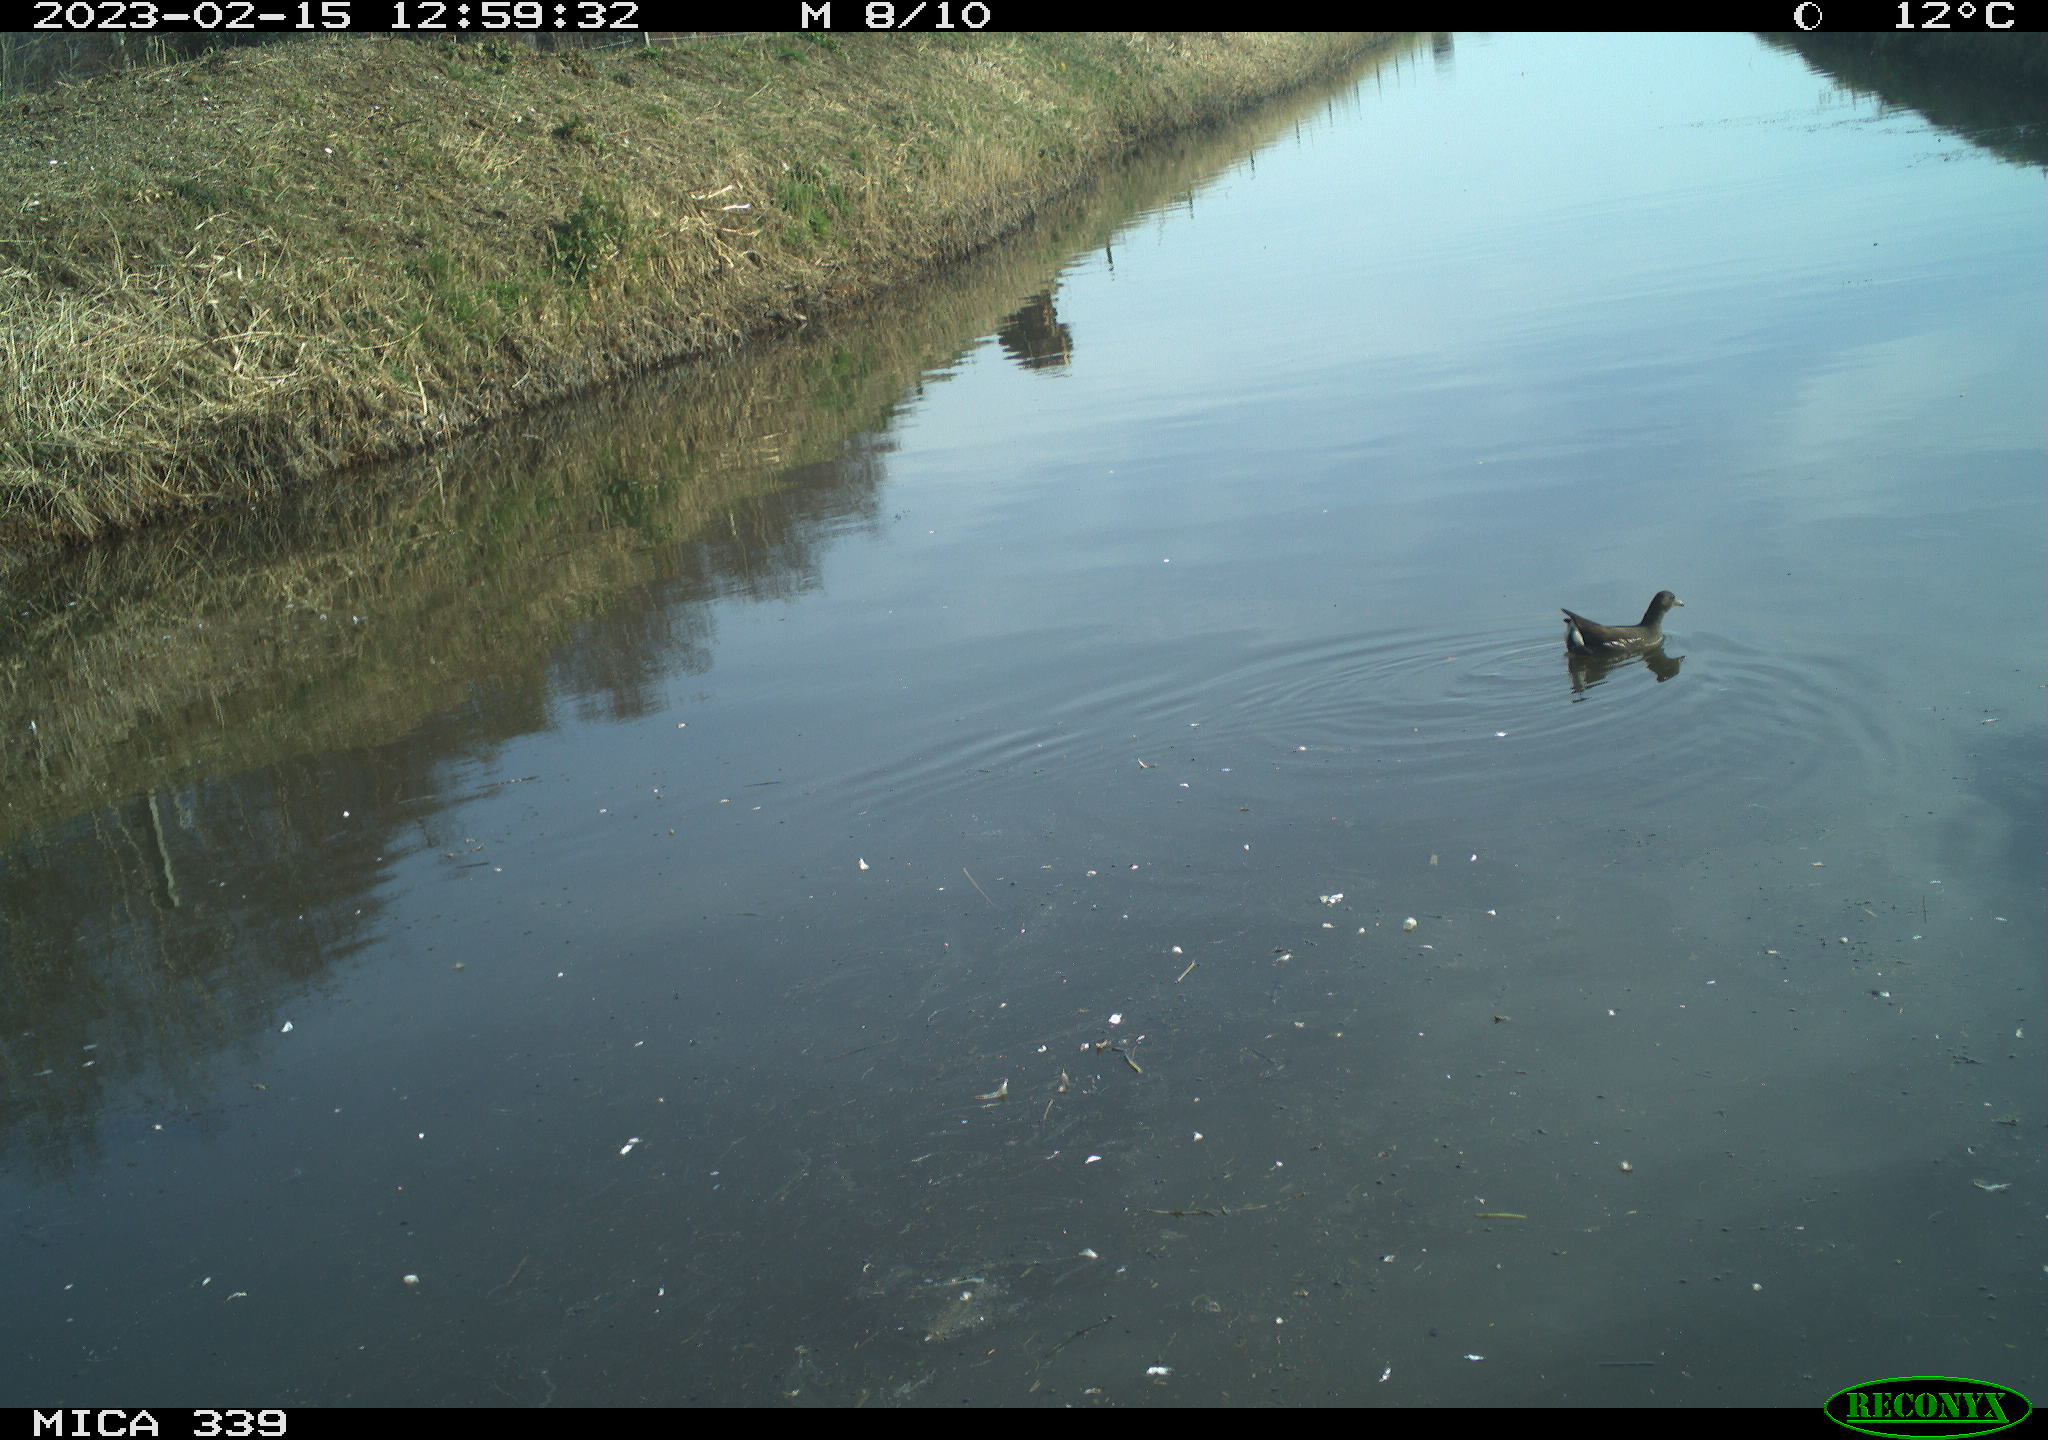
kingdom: Animalia
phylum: Chordata
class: Aves
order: Gruiformes
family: Rallidae
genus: Gallinula
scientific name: Gallinula chloropus
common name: Common moorhen
